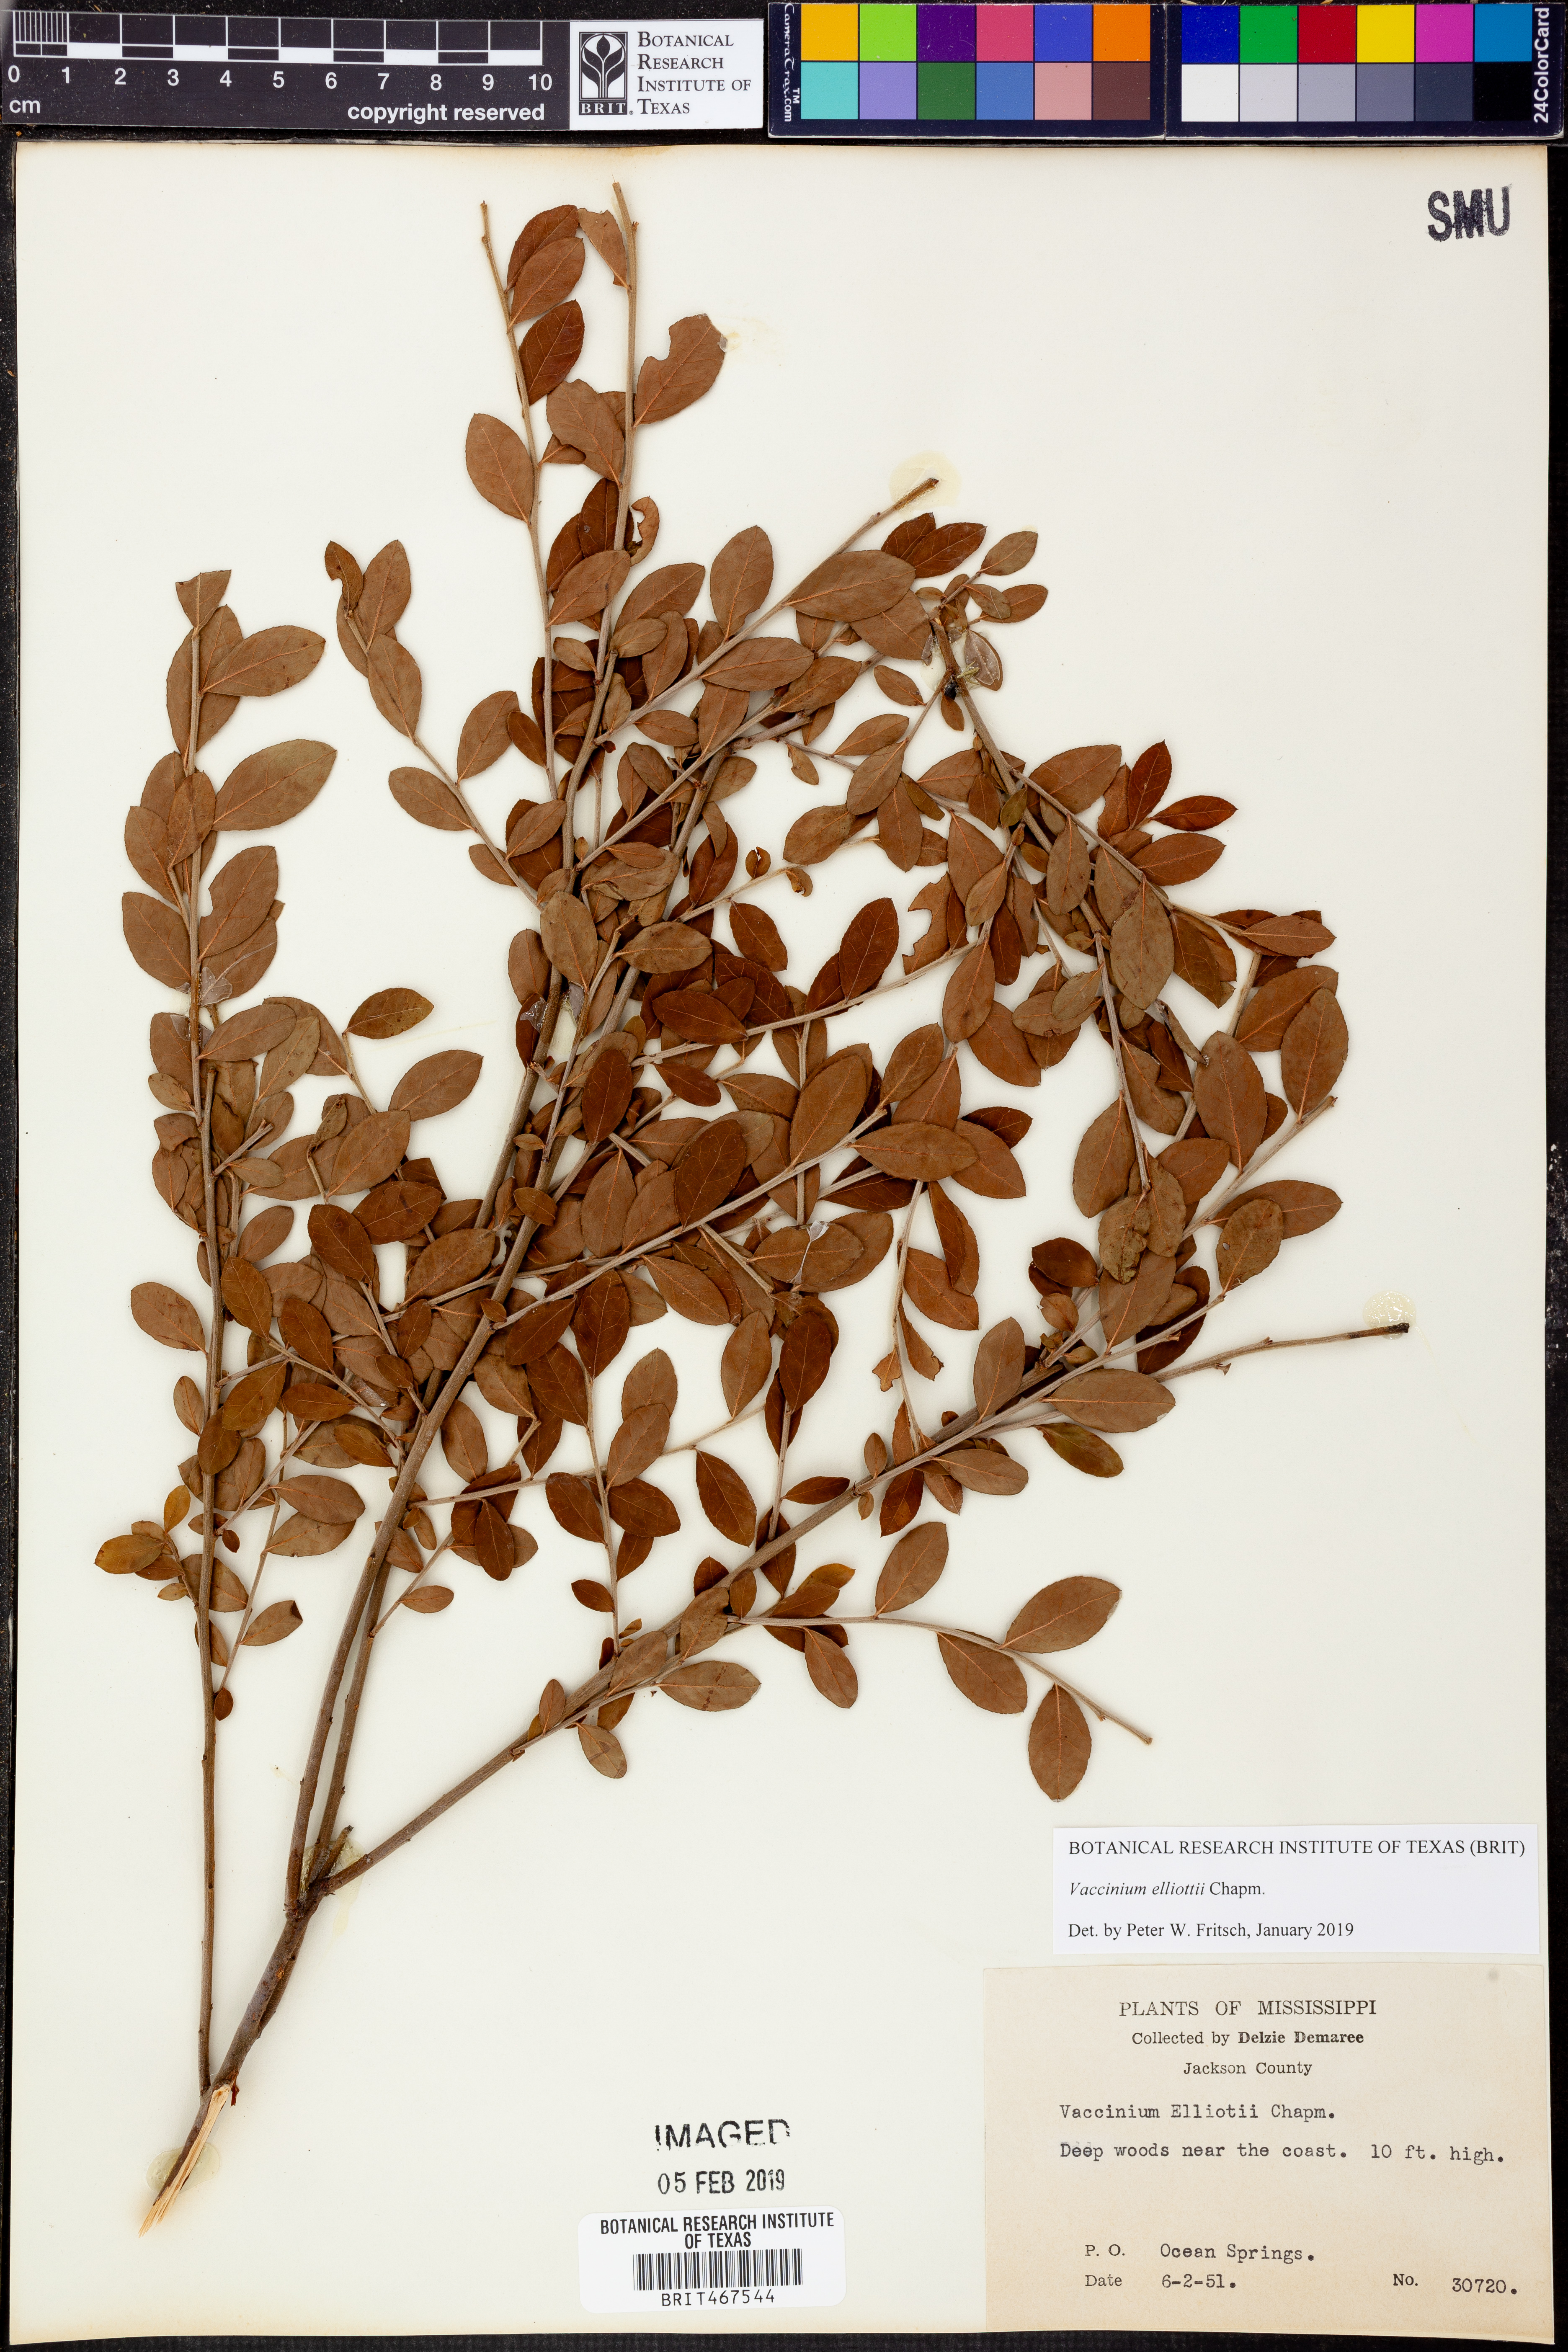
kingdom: Plantae
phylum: Tracheophyta
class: Magnoliopsida
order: Ericales
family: Ericaceae
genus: Vaccinium
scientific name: Vaccinium corymbosum
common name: Blueberry
